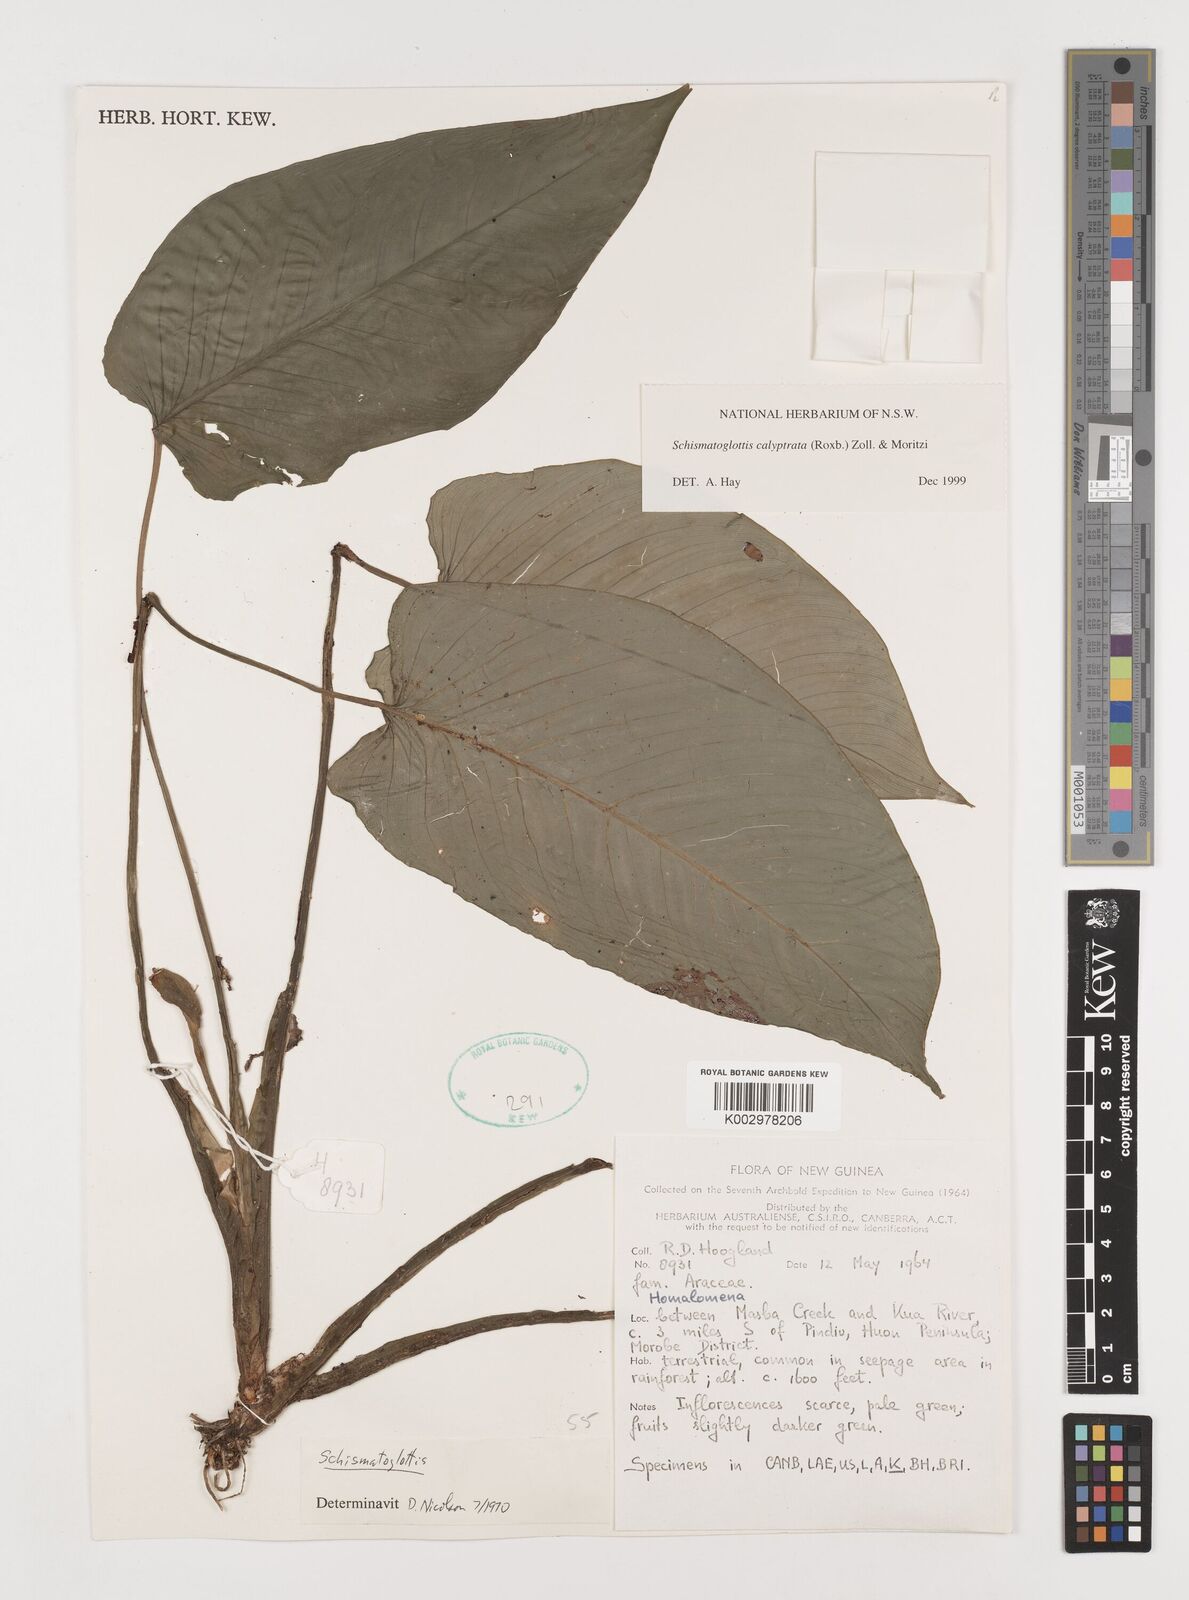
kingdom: Plantae
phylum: Tracheophyta
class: Liliopsida
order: Alismatales
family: Araceae
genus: Schismatoglottis
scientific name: Schismatoglottis calyptrata
